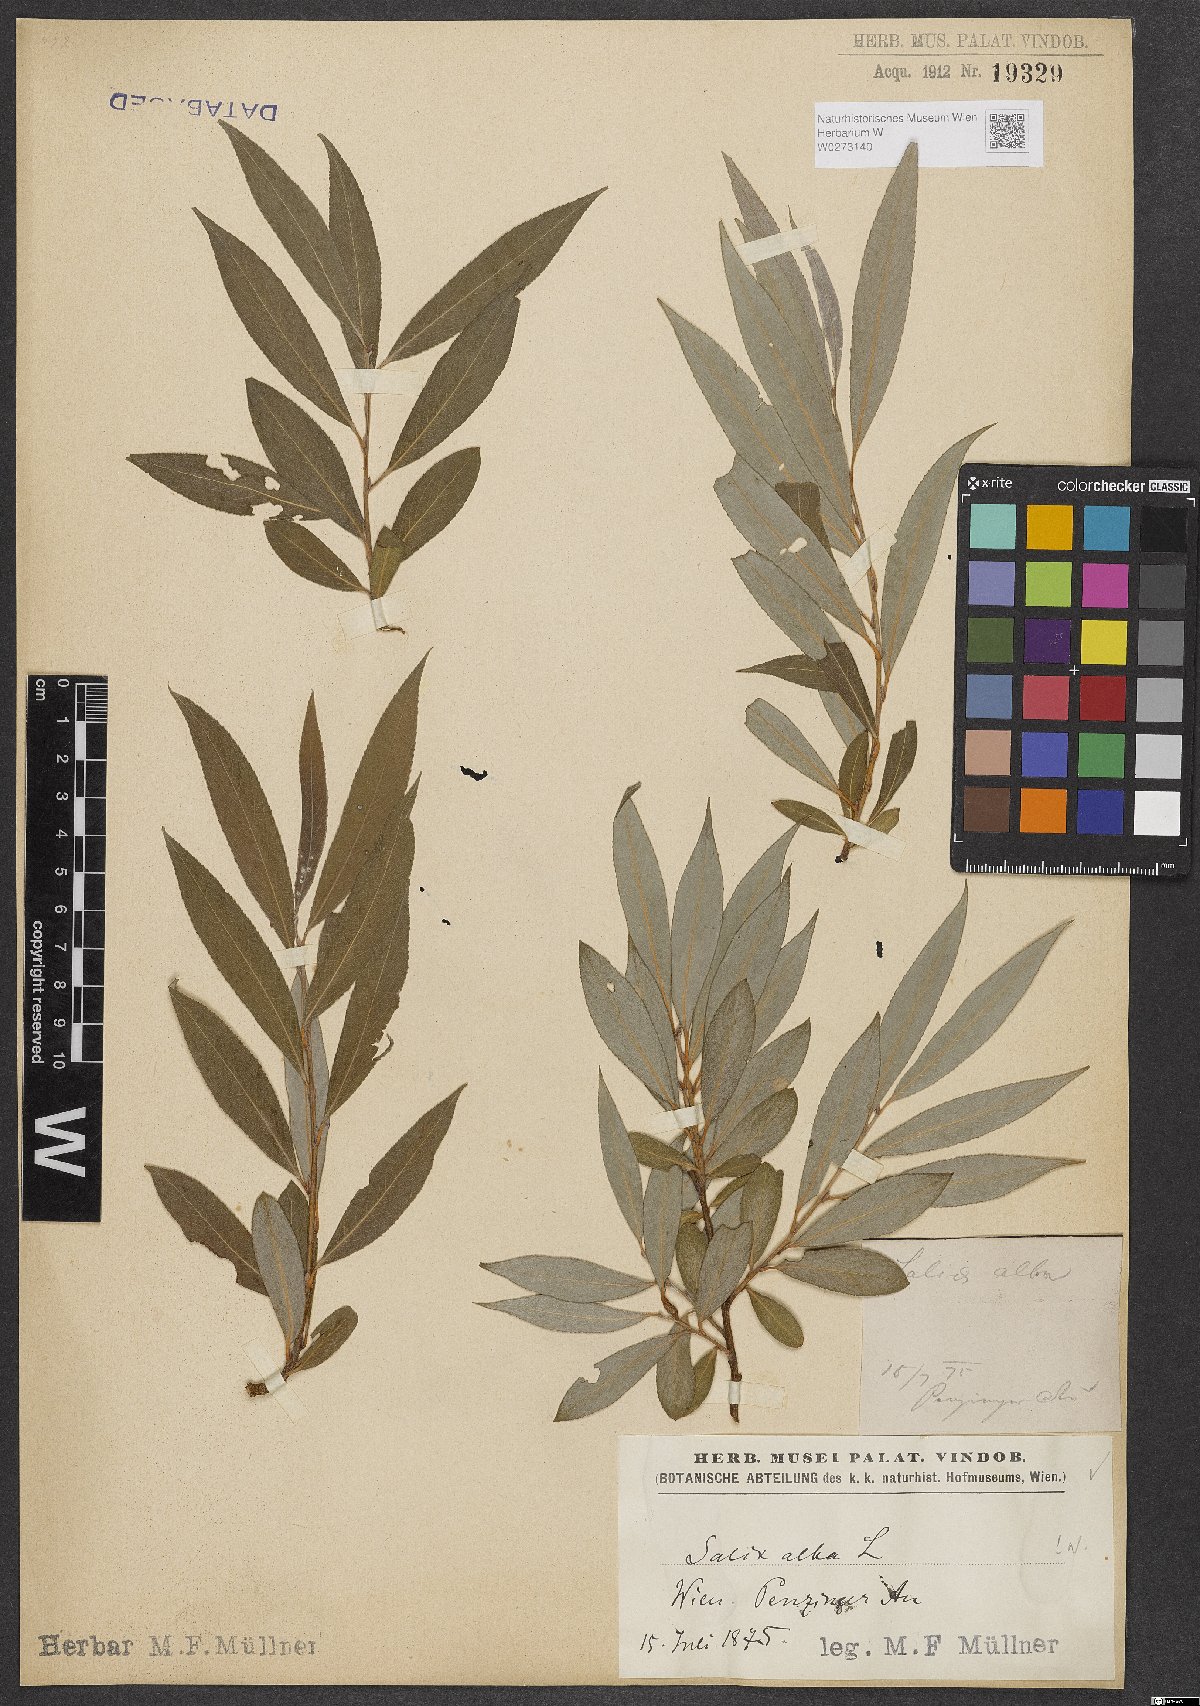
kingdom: Plantae
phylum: Tracheophyta
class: Magnoliopsida
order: Malpighiales
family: Salicaceae
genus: Salix
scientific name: Salix alba
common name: White willow
